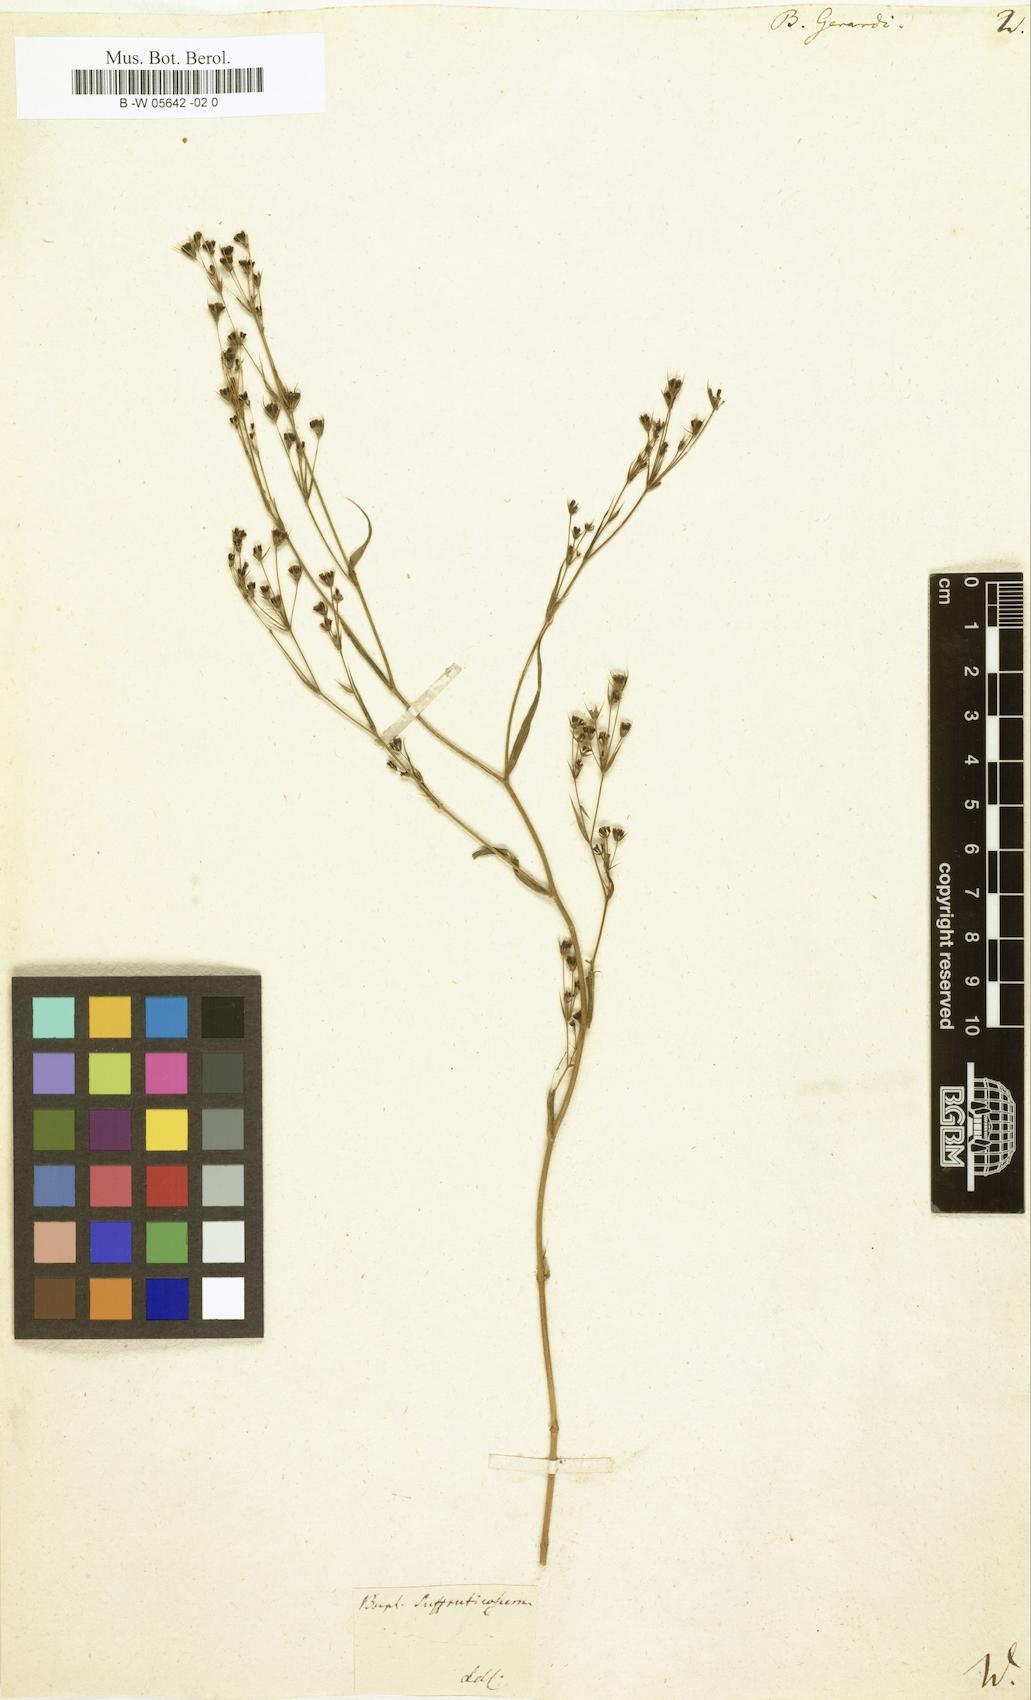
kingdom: Plantae
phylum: Tracheophyta
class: Magnoliopsida
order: Apiales
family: Apiaceae
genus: Bupleurum
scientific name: Bupleurum gerardi
